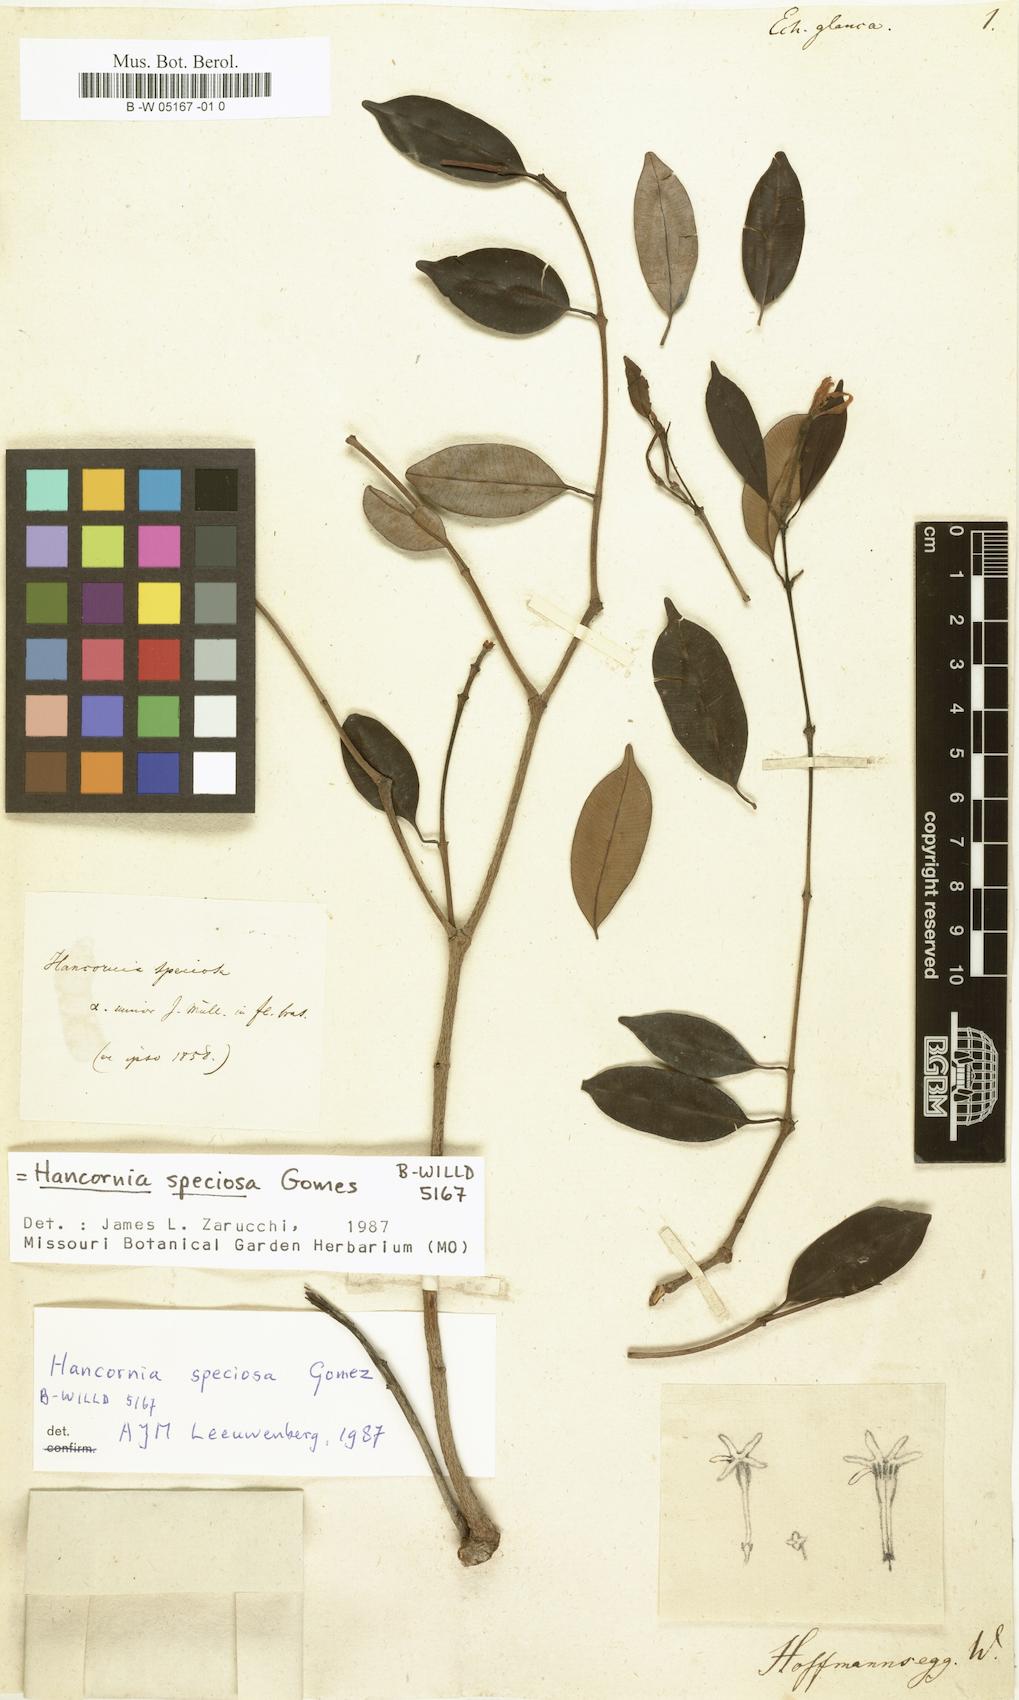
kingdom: Plantae
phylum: Tracheophyta
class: Magnoliopsida
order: Gentianales
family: Apocynaceae
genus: Hancornia
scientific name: Hancornia speciosa
